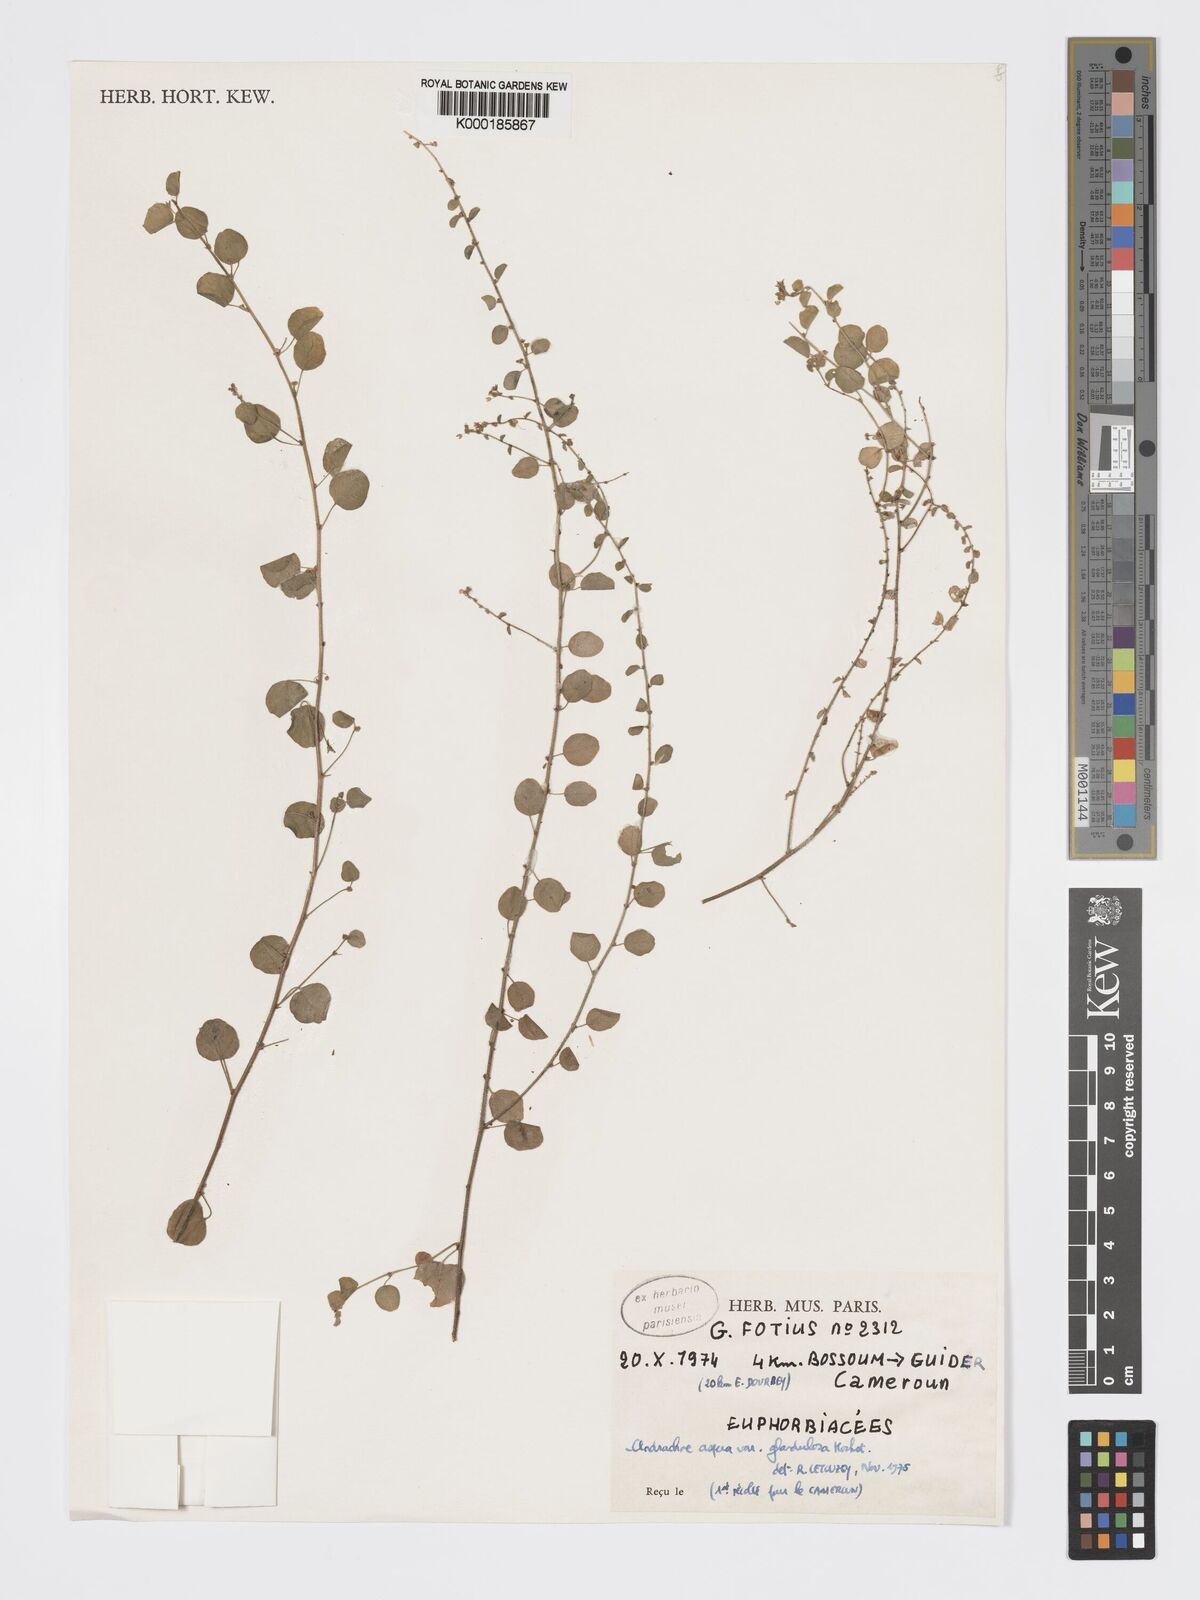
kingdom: Plantae
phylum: Tracheophyta
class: Magnoliopsida
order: Malpighiales
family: Phyllanthaceae
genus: Andrachne
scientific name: Andrachne aspera
